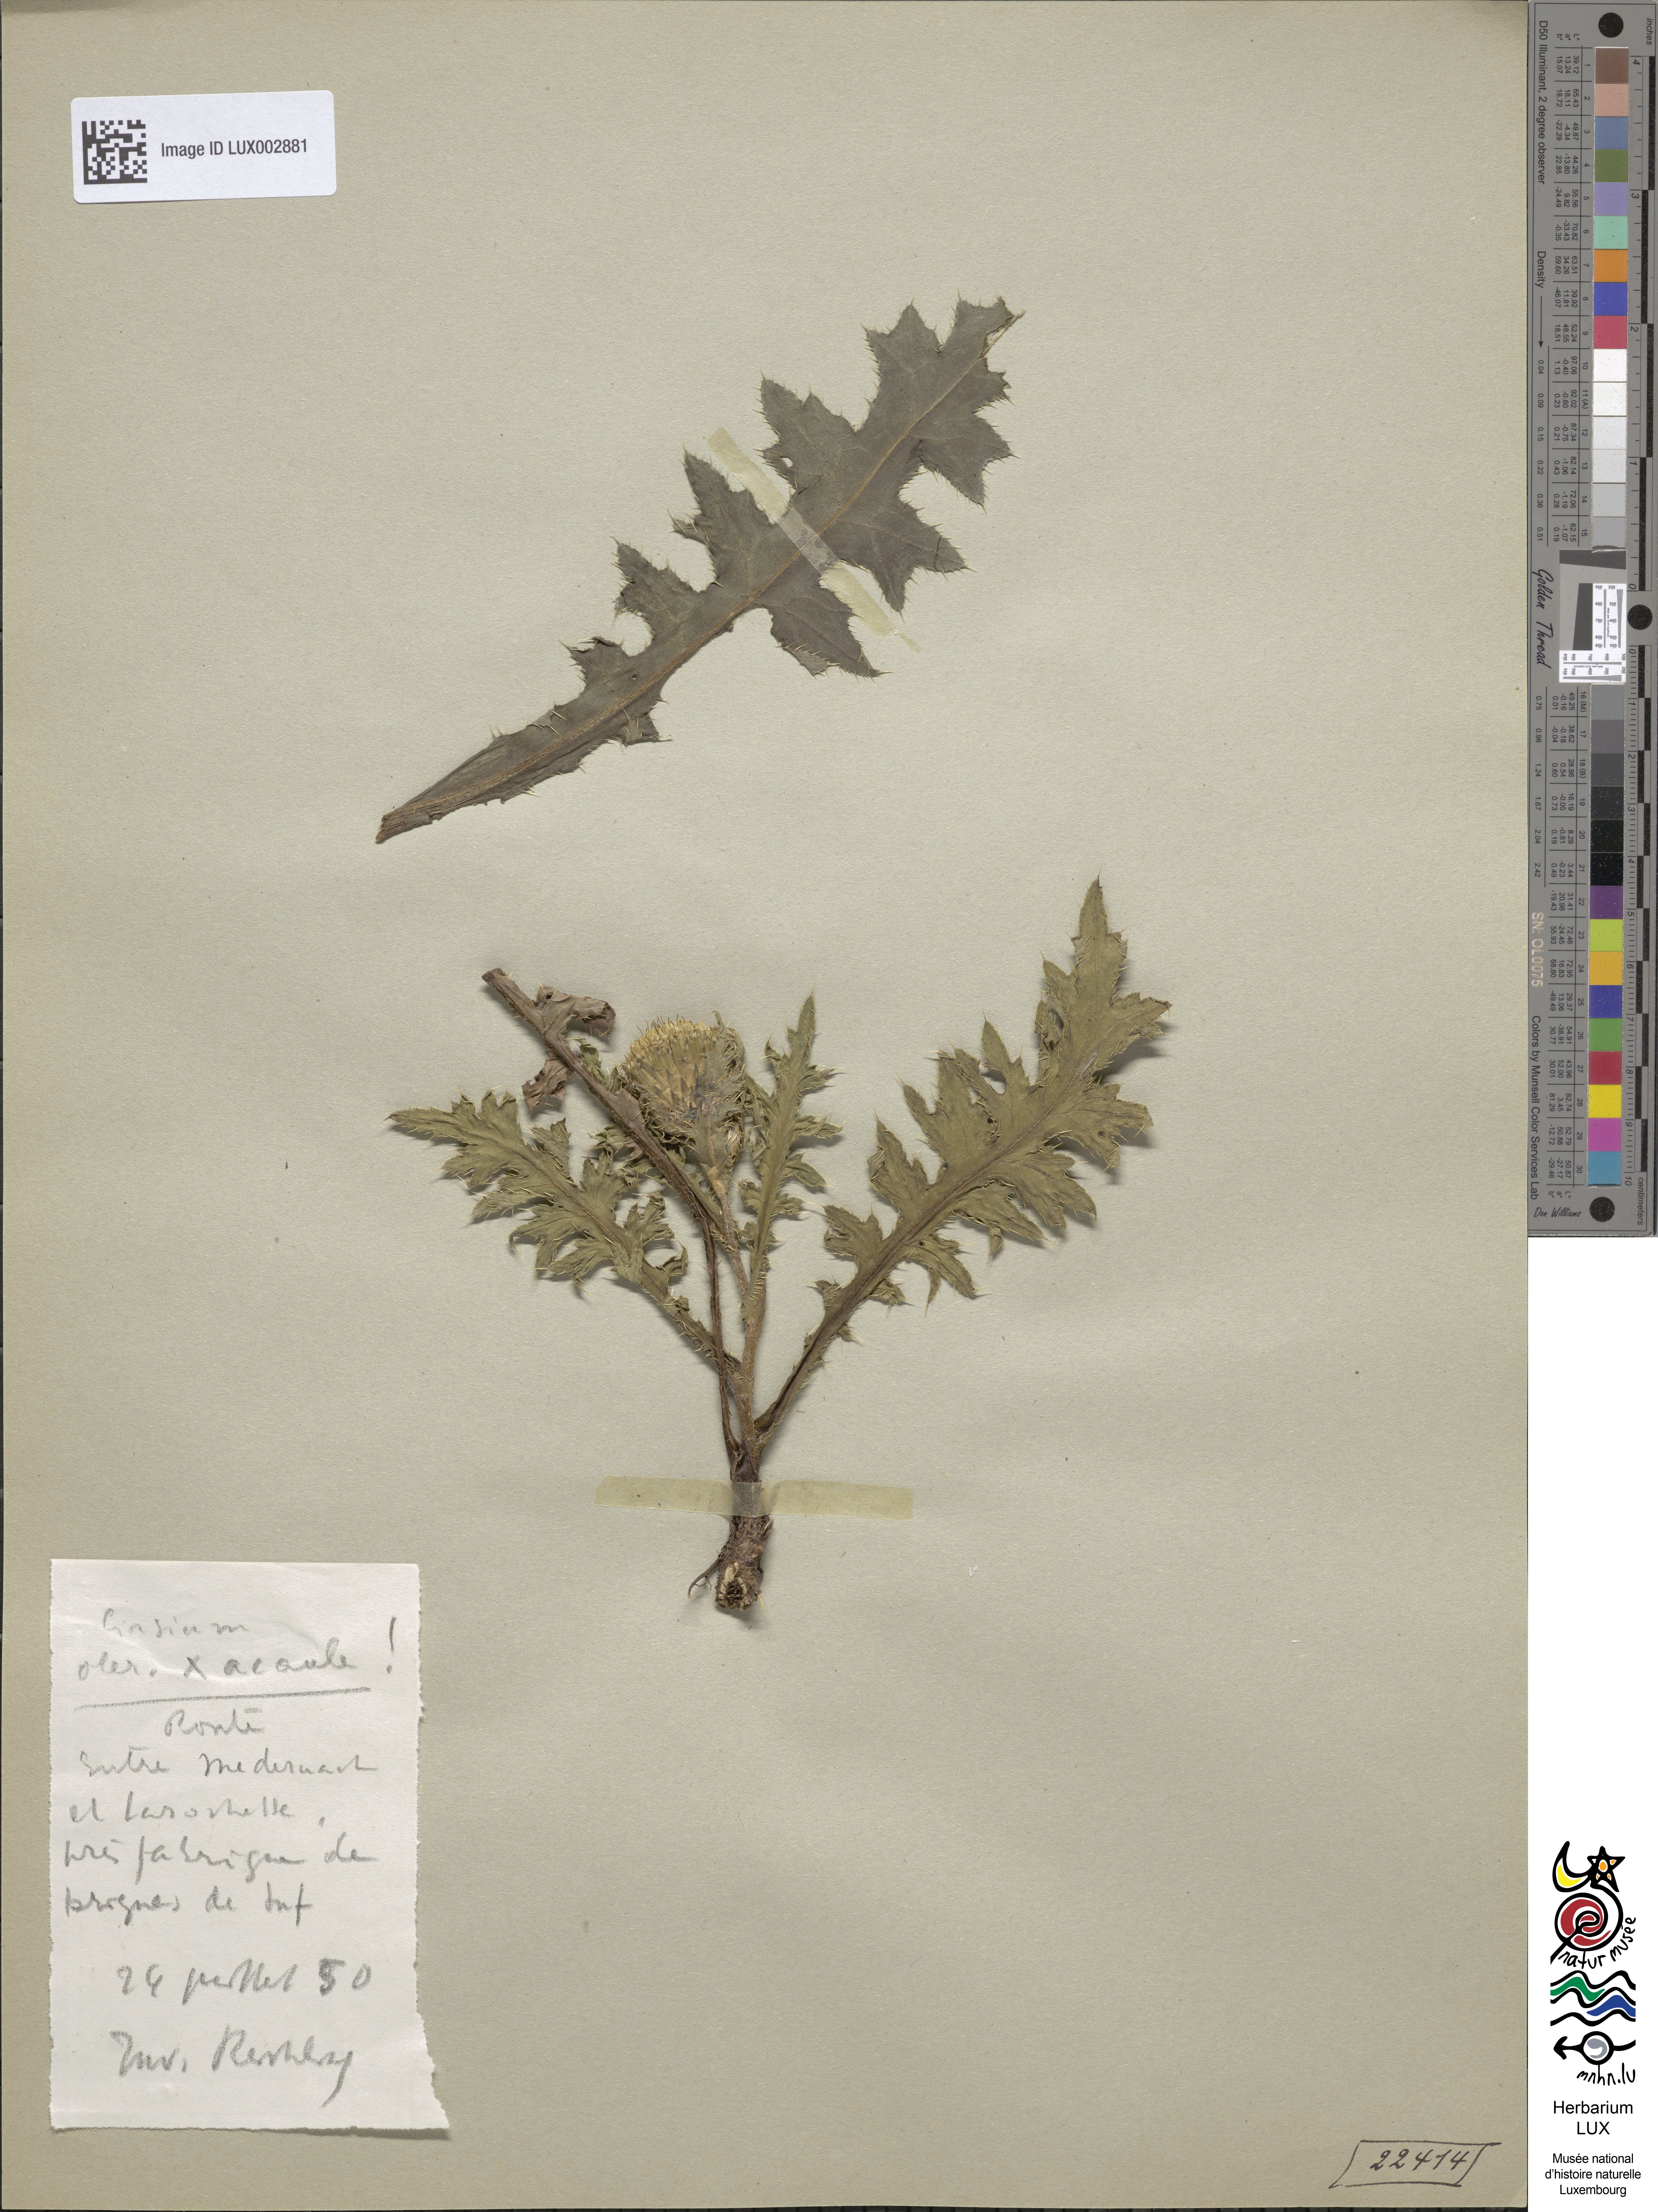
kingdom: Plantae
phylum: Tracheophyta
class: Magnoliopsida
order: Asterales
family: Asteraceae
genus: Cirsium
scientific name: Cirsium rigens
